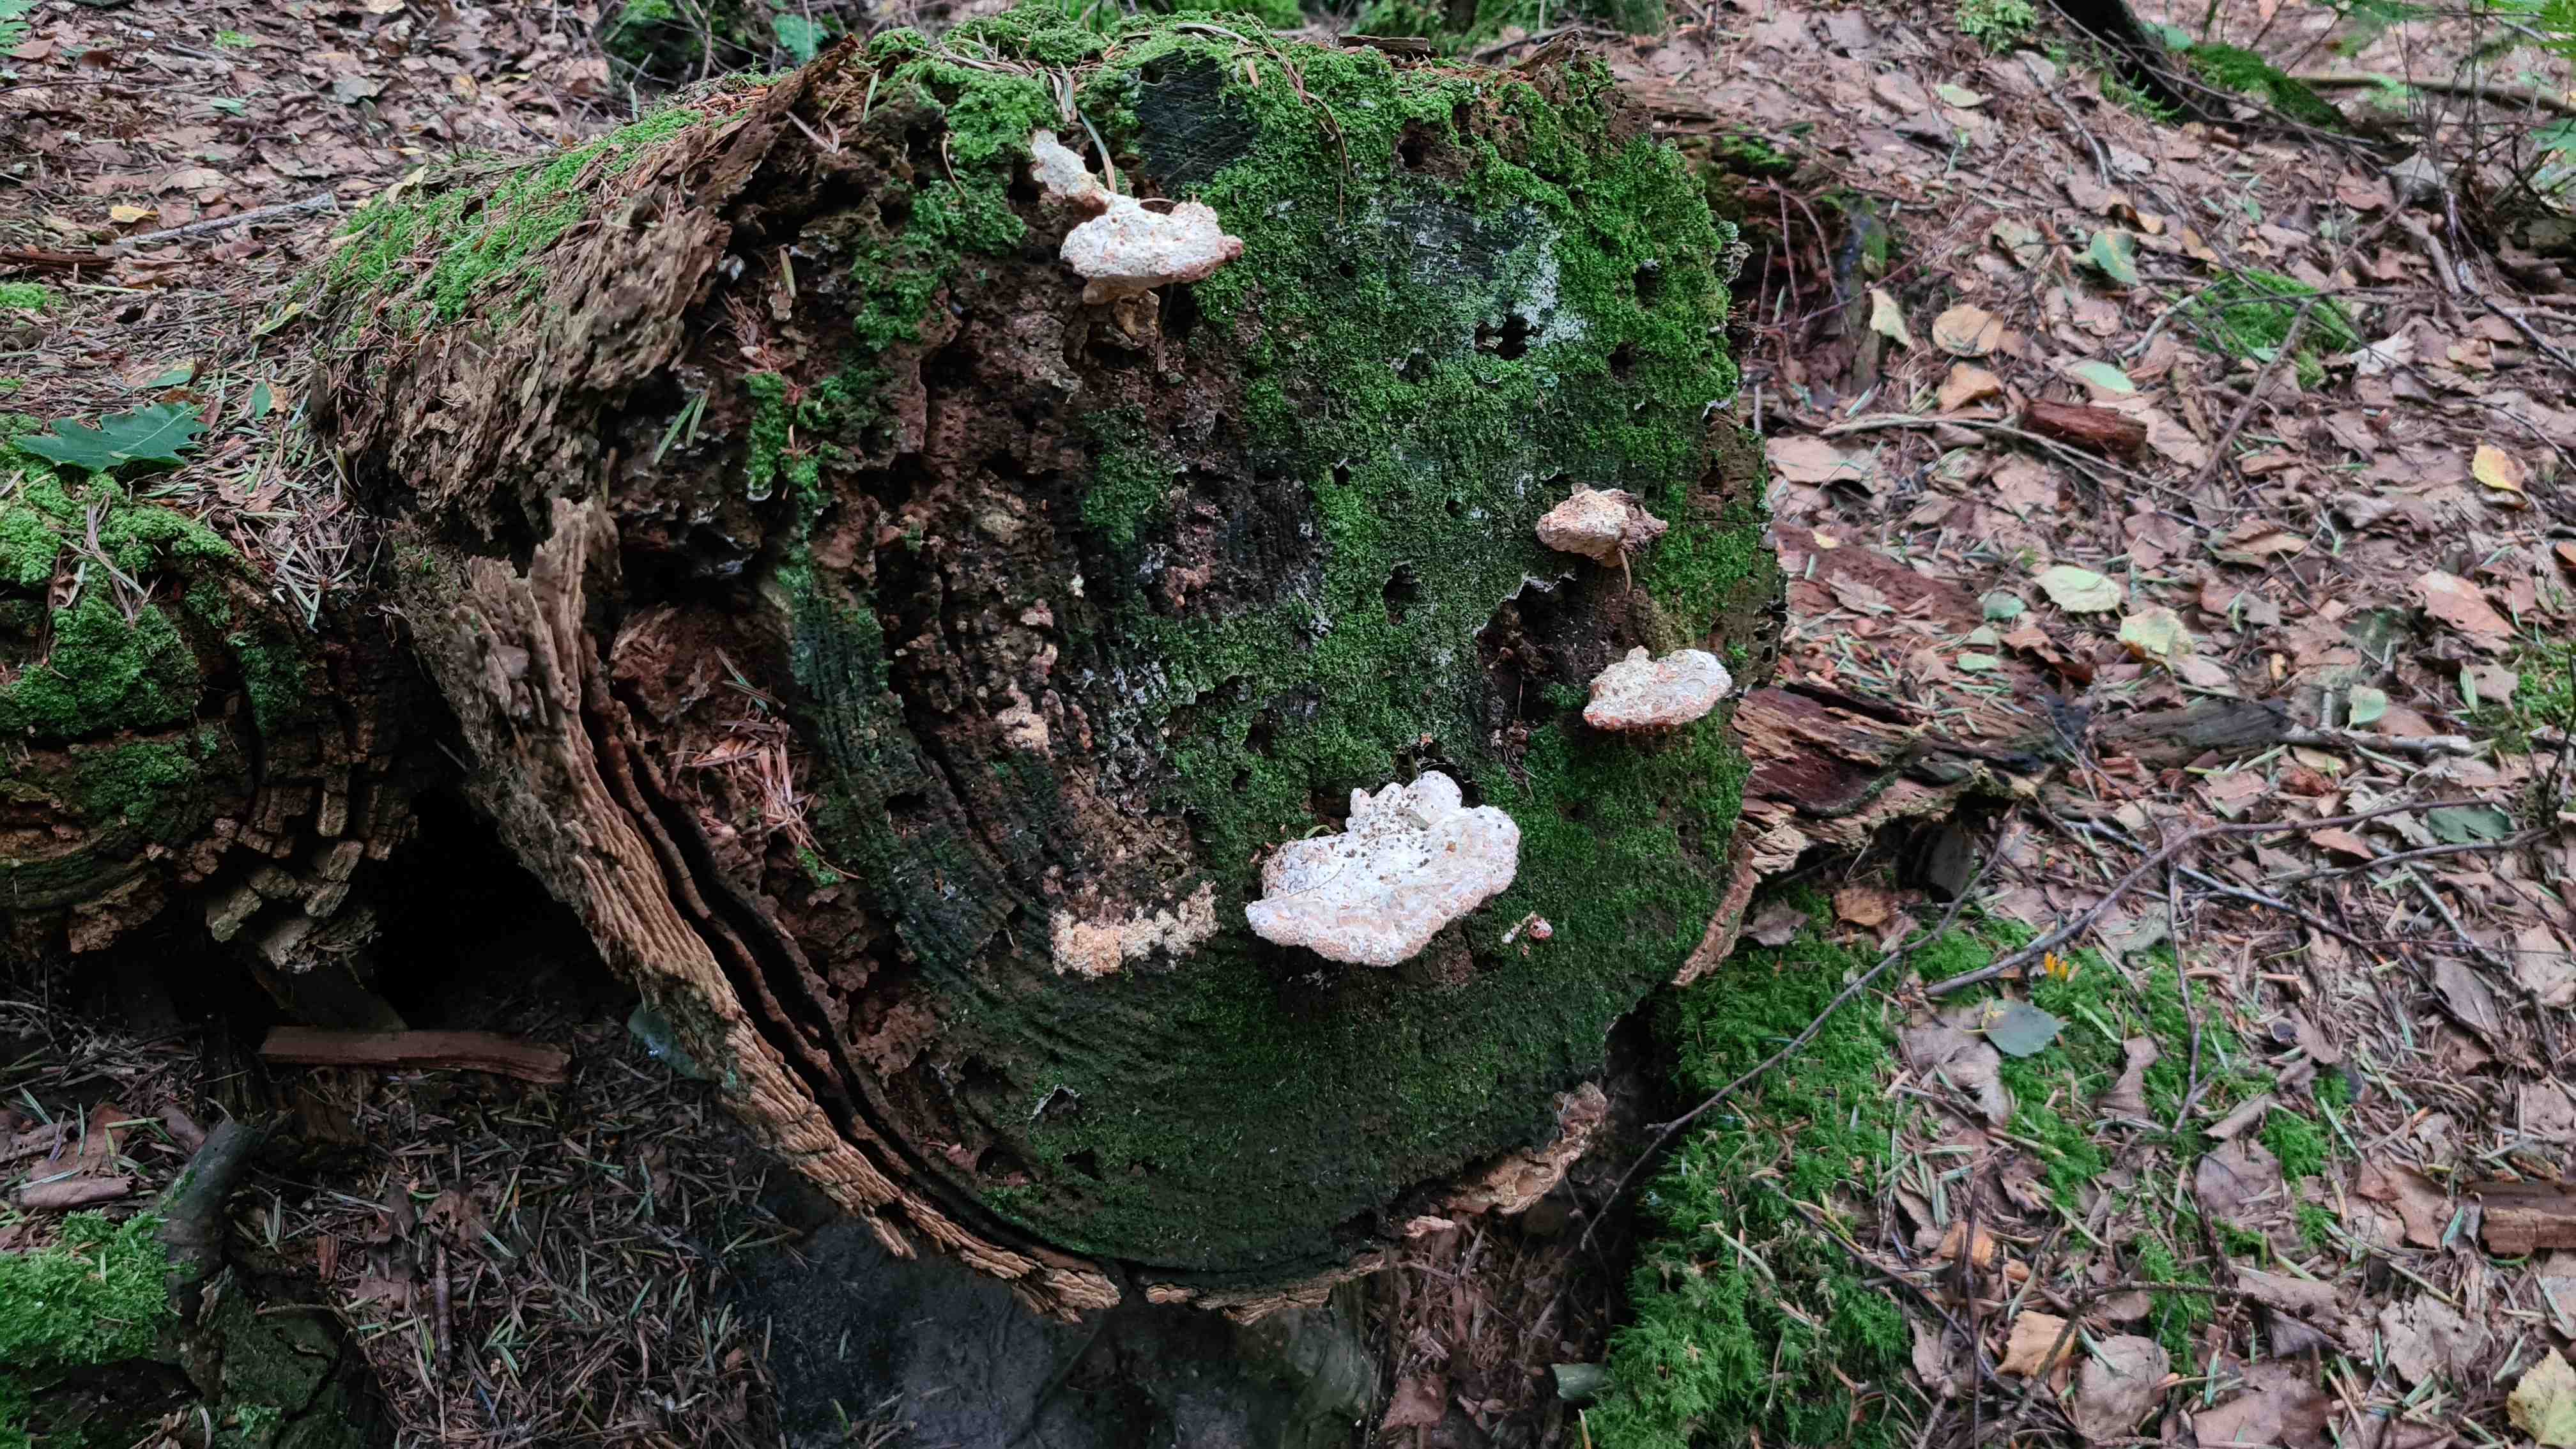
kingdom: Fungi
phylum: Basidiomycota
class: Agaricomycetes
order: Polyporales
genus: Calcipostia
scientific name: Calcipostia guttulata
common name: dråbe-kødporesvamp
